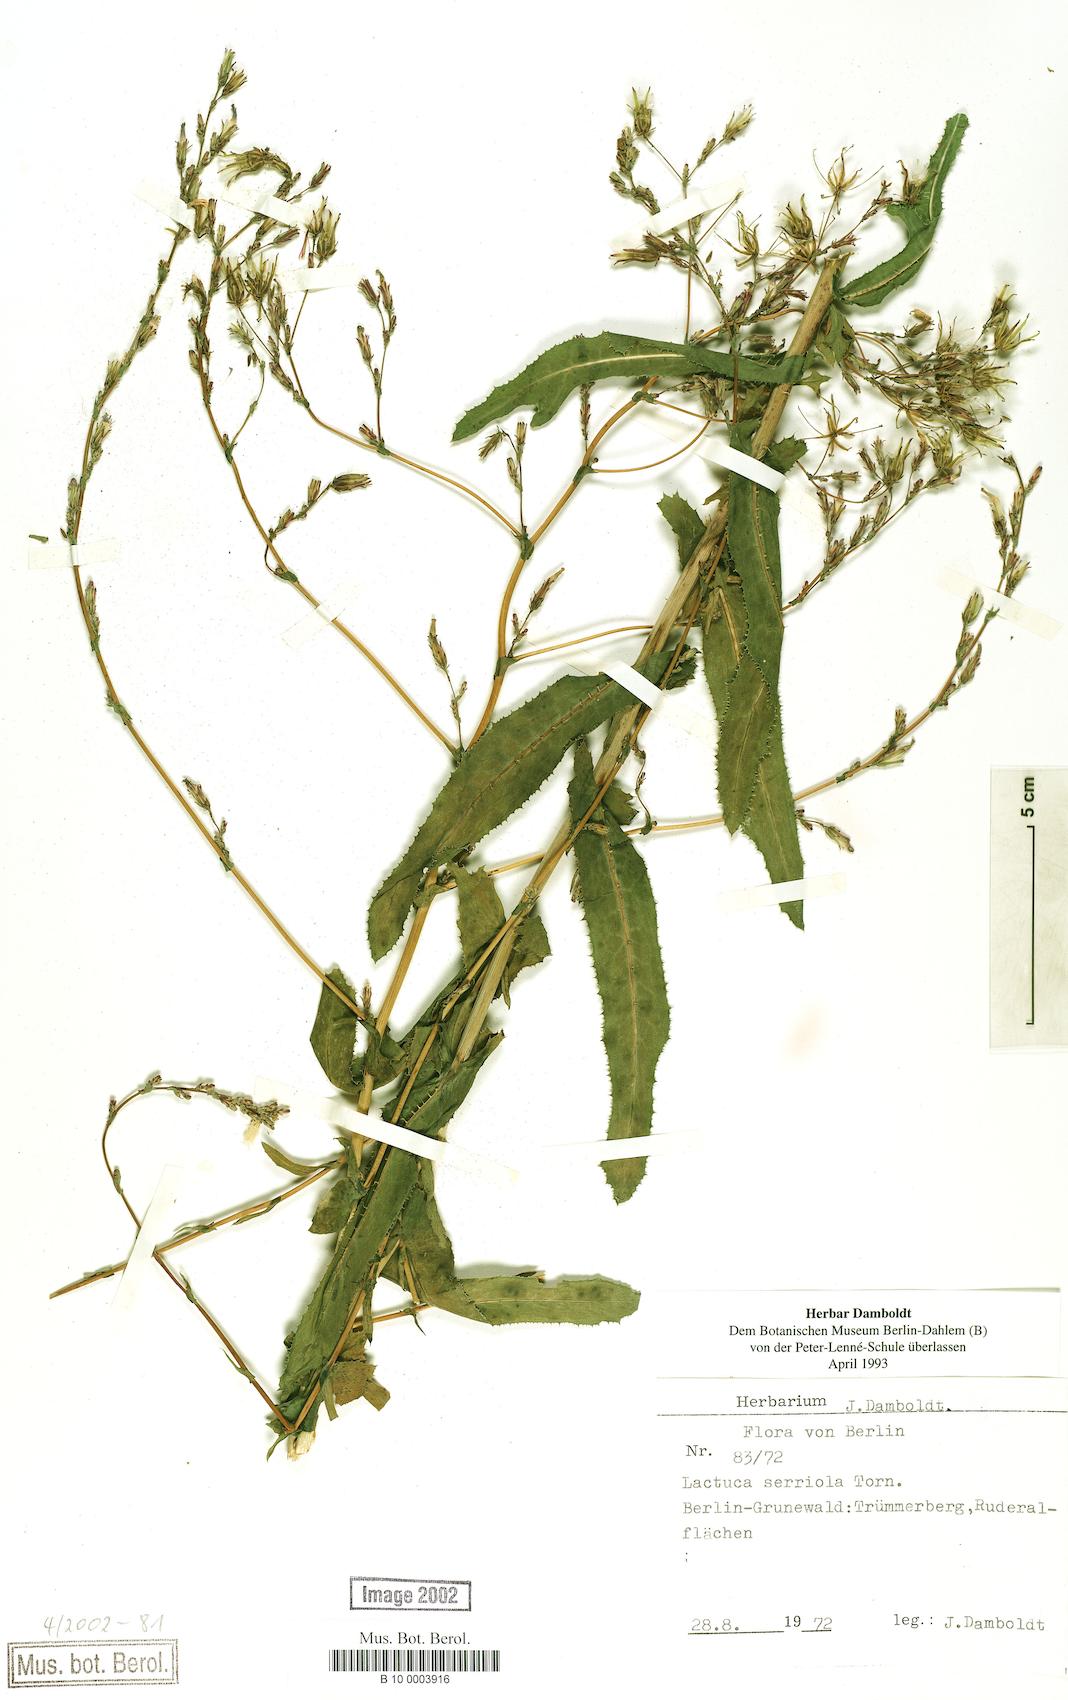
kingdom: Plantae
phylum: Tracheophyta
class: Magnoliopsida
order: Asterales
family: Asteraceae
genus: Lactuca
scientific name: Lactuca serriola
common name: Prickly lettuce
